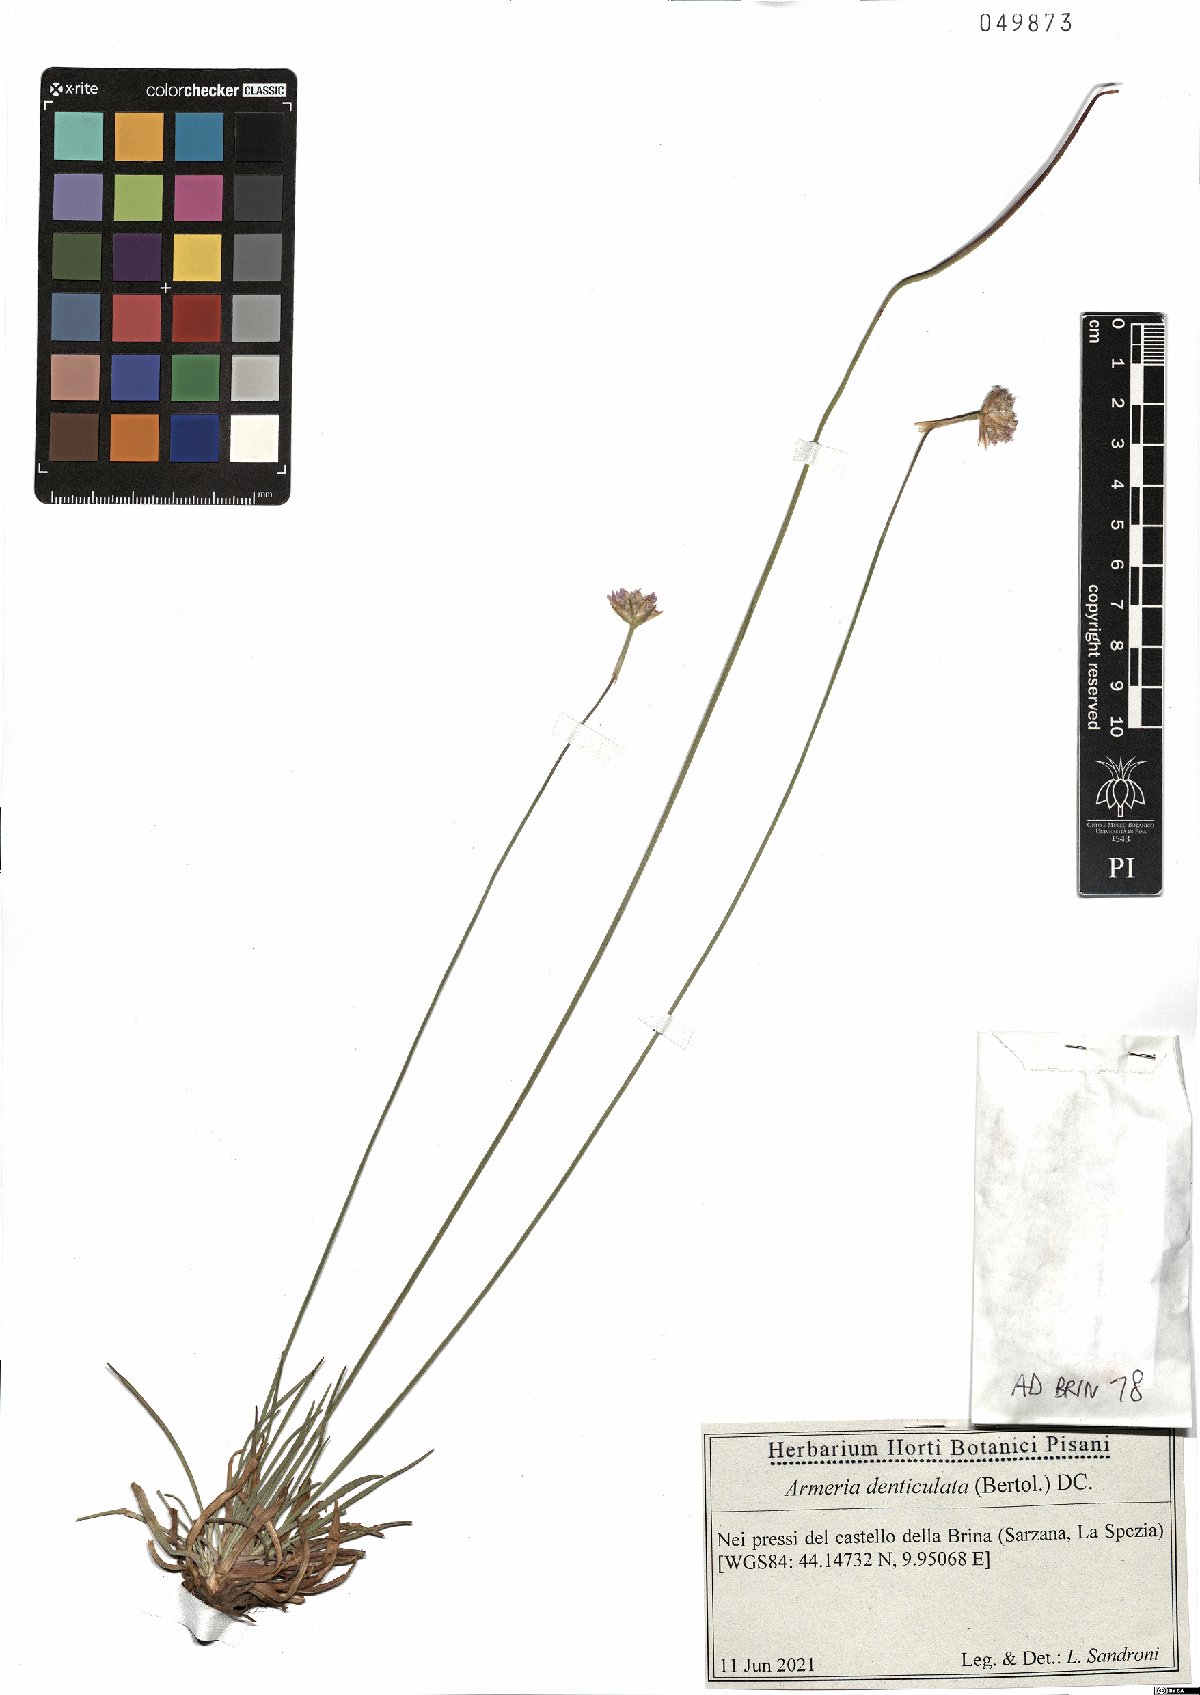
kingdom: Plantae
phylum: Tracheophyta
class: Magnoliopsida
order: Caryophyllales
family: Plumbaginaceae
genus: Armeria
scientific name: Armeria denticulata
